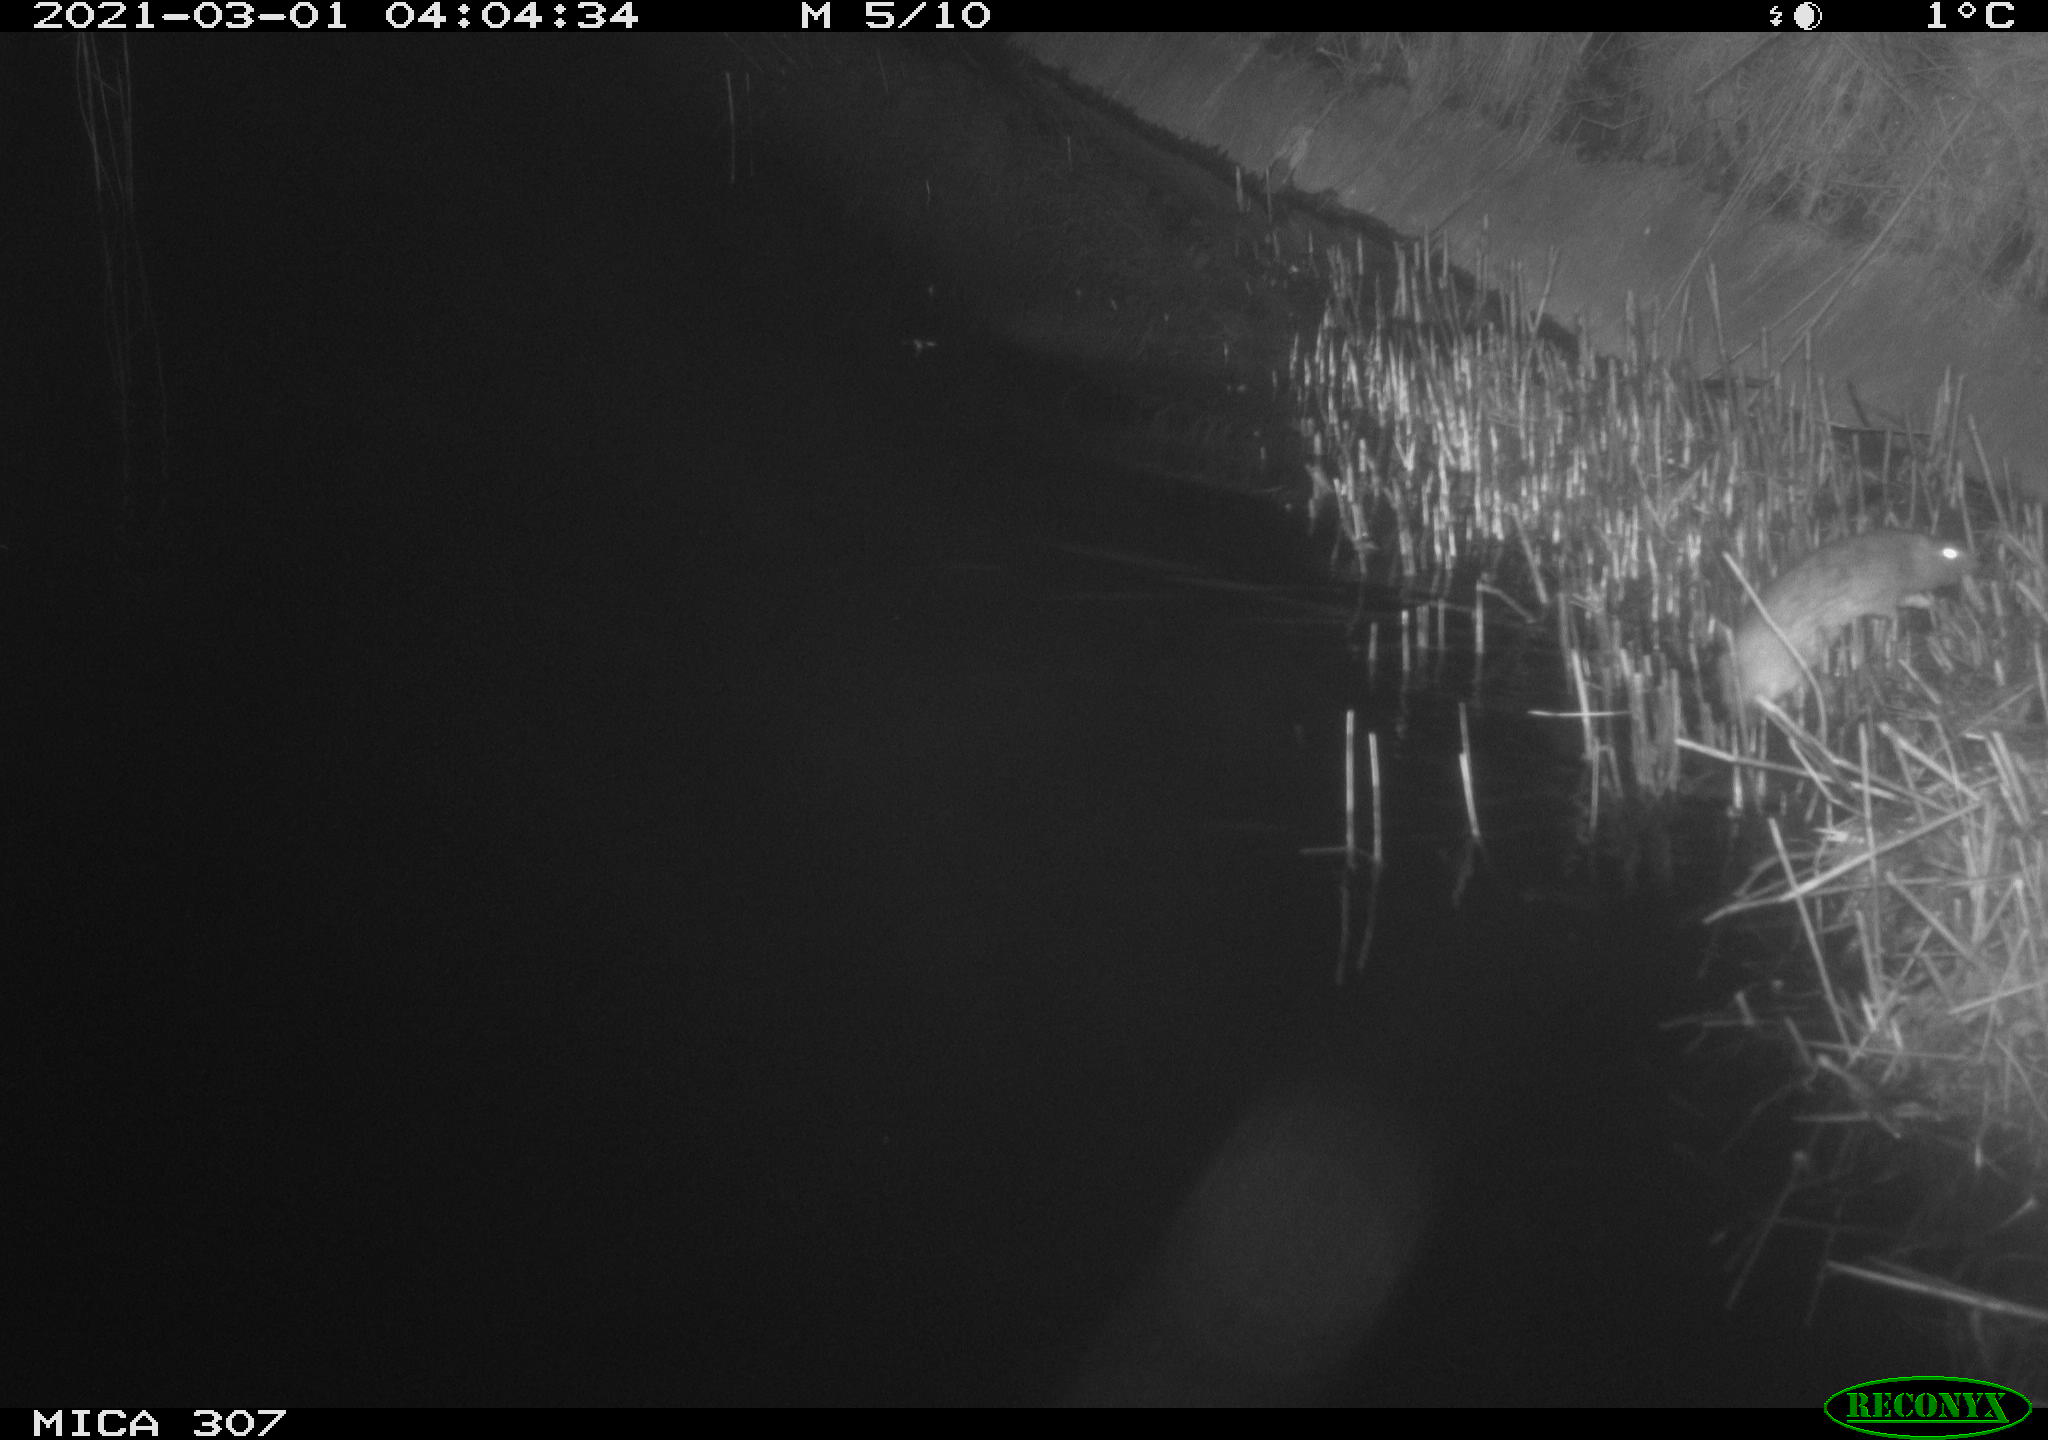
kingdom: Animalia
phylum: Chordata
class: Mammalia
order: Rodentia
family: Cricetidae
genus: Ondatra
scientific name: Ondatra zibethicus
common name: Muskrat
